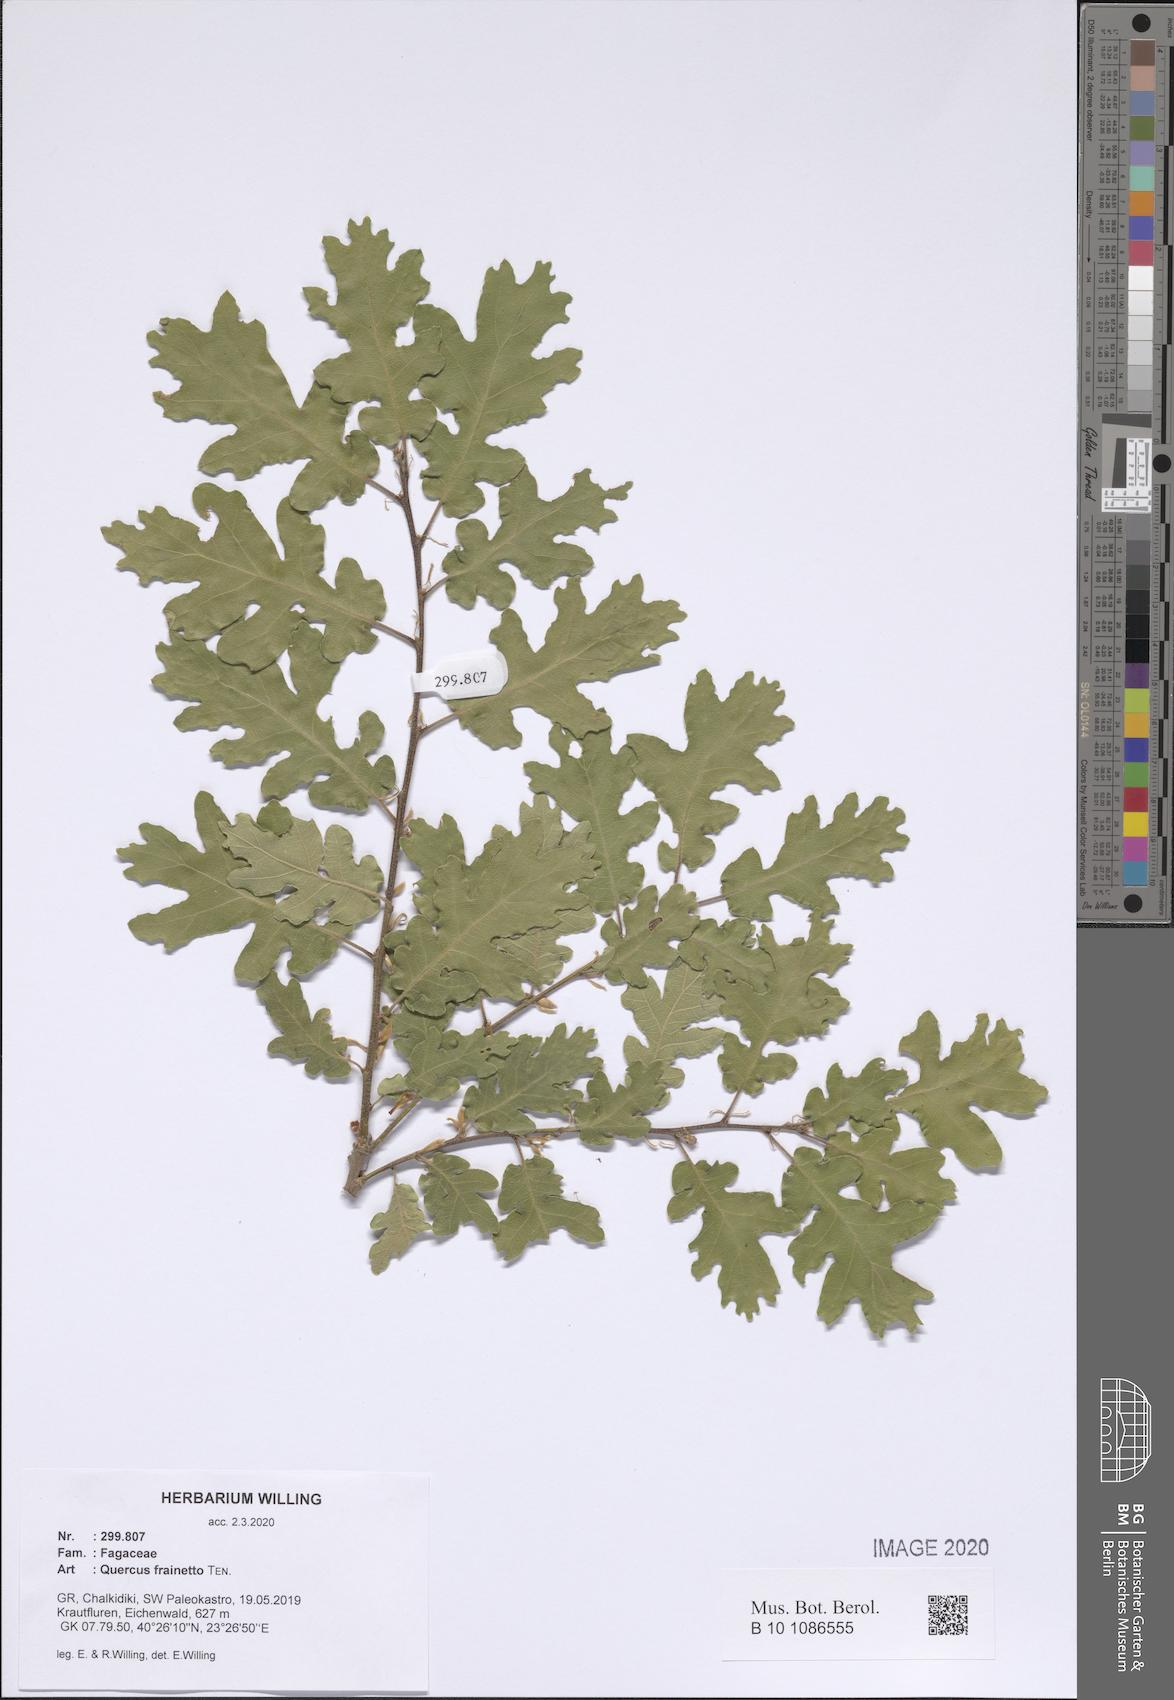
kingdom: Plantae
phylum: Tracheophyta
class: Magnoliopsida
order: Fagales
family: Fagaceae
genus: Quercus
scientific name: Quercus conferta
